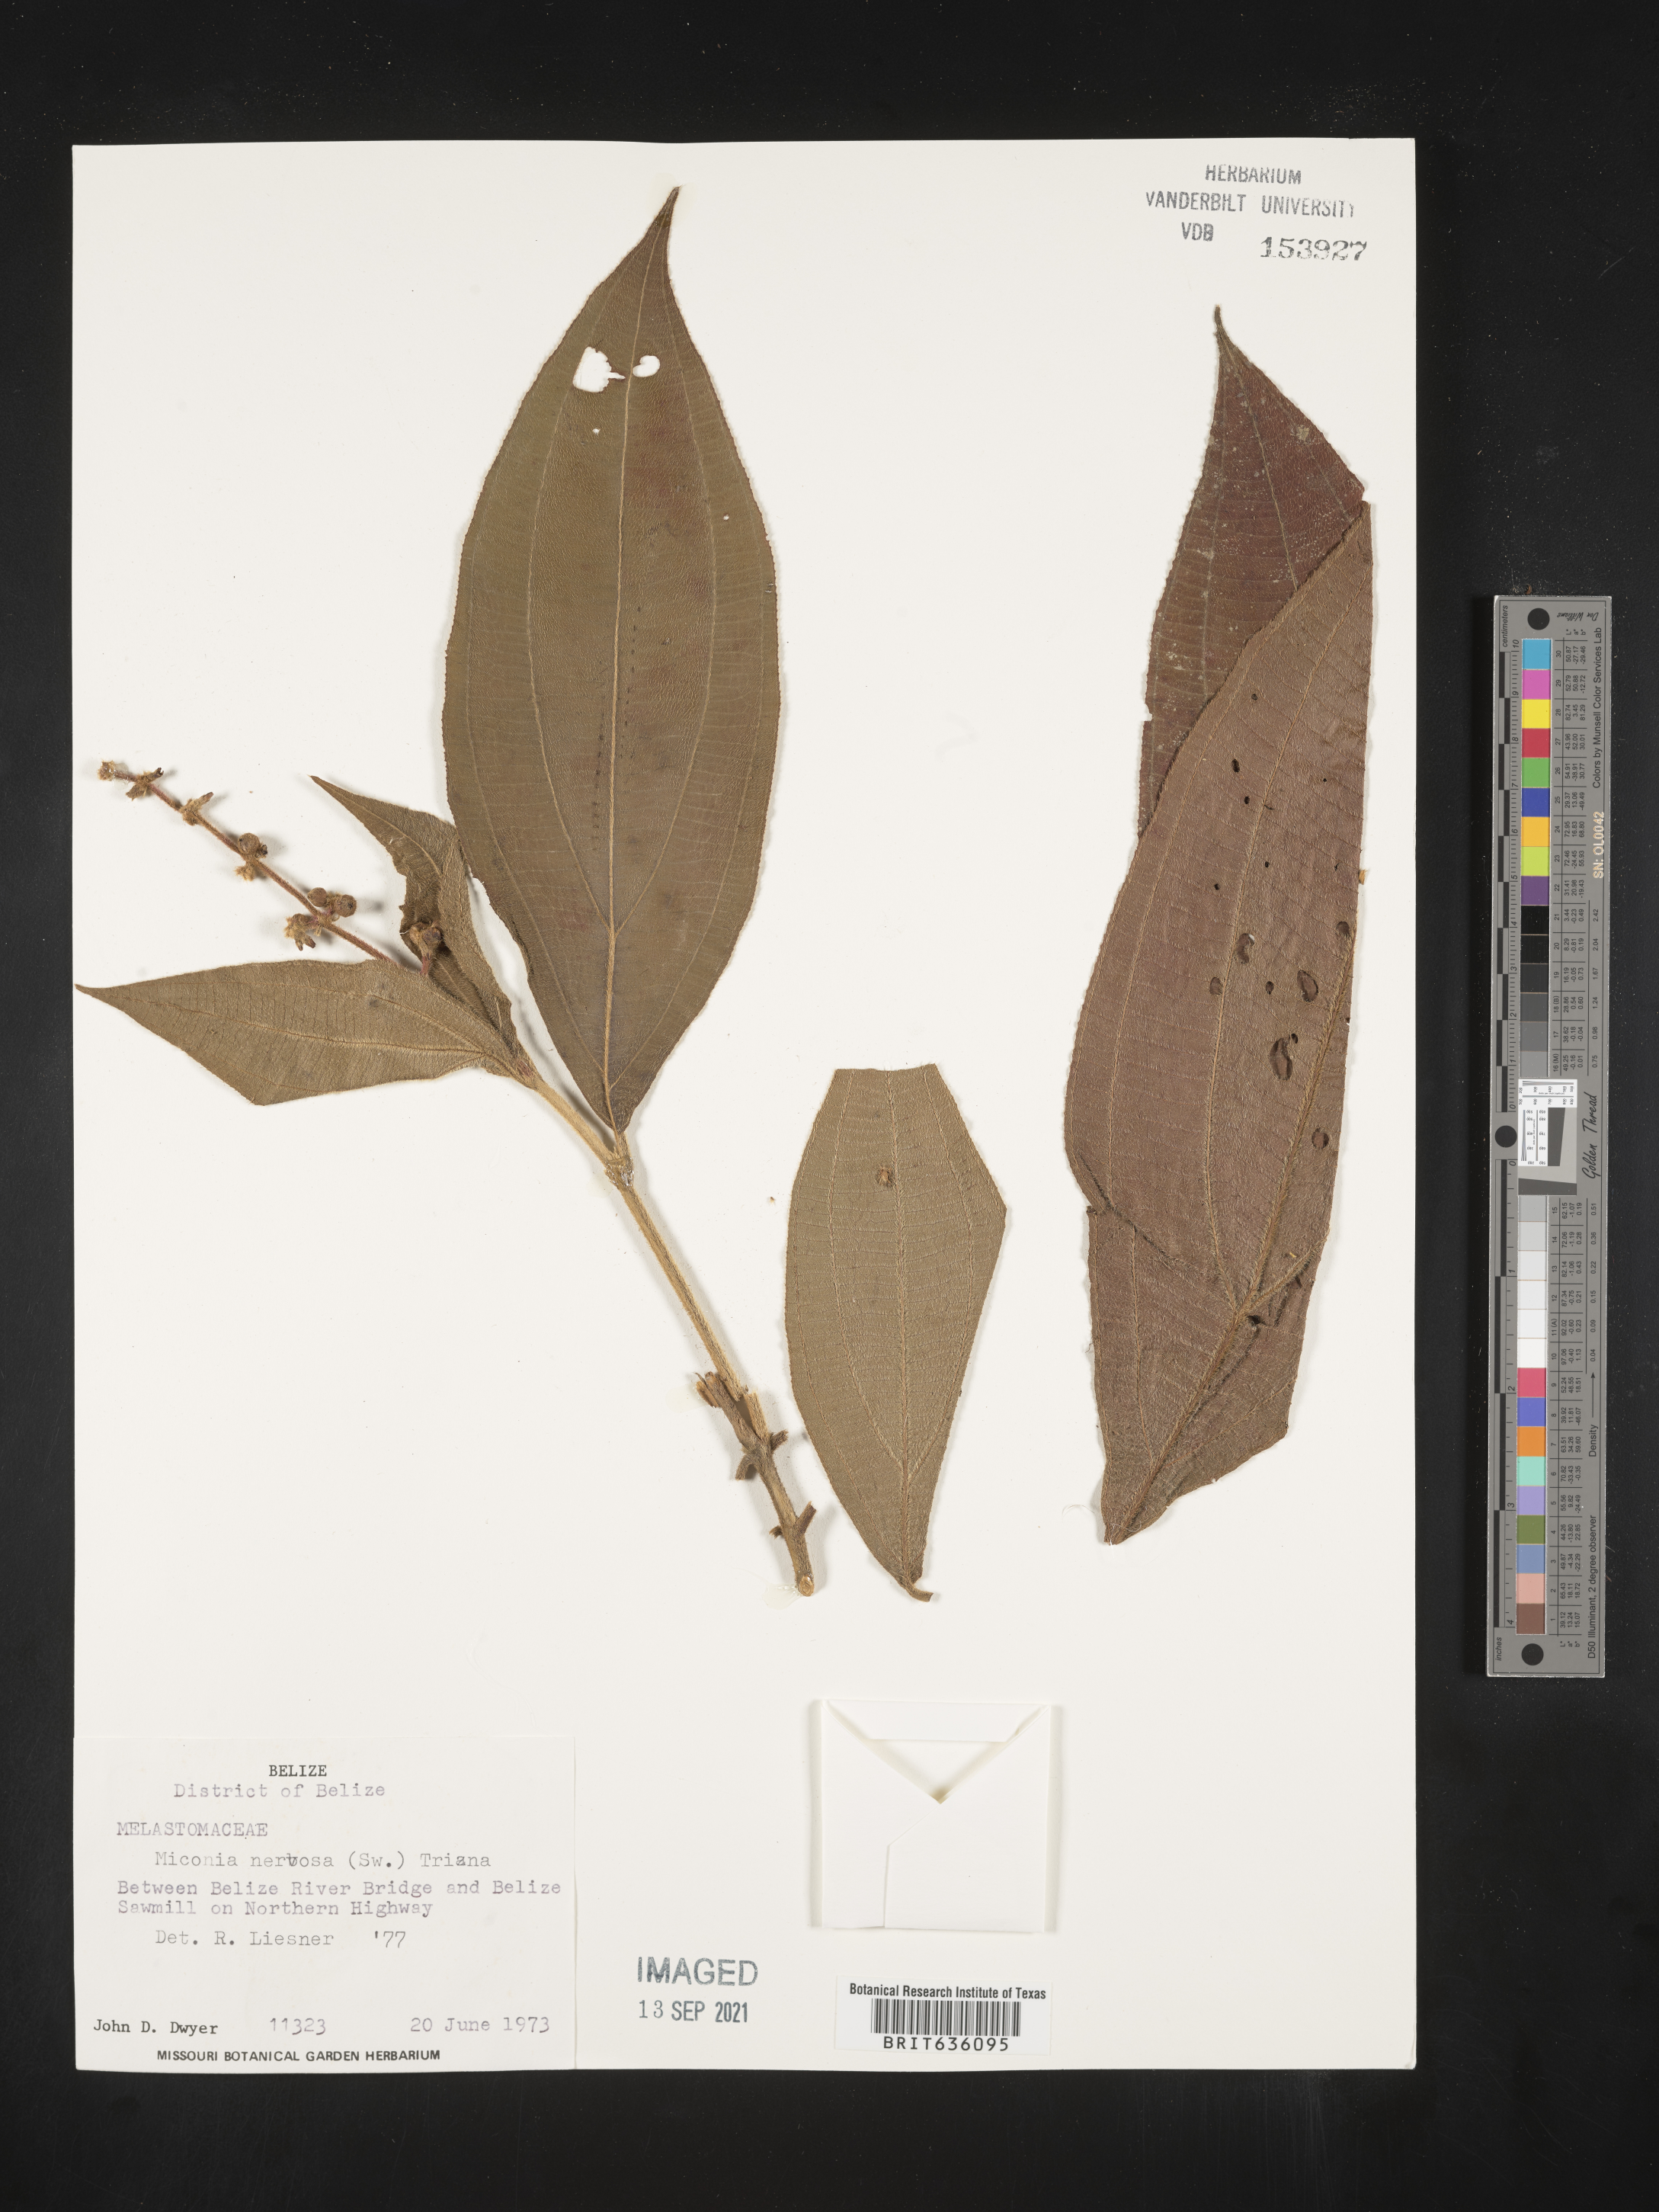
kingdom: Plantae
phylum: Tracheophyta
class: Magnoliopsida
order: Myrtales
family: Melastomataceae
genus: Miconia
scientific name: Miconia
